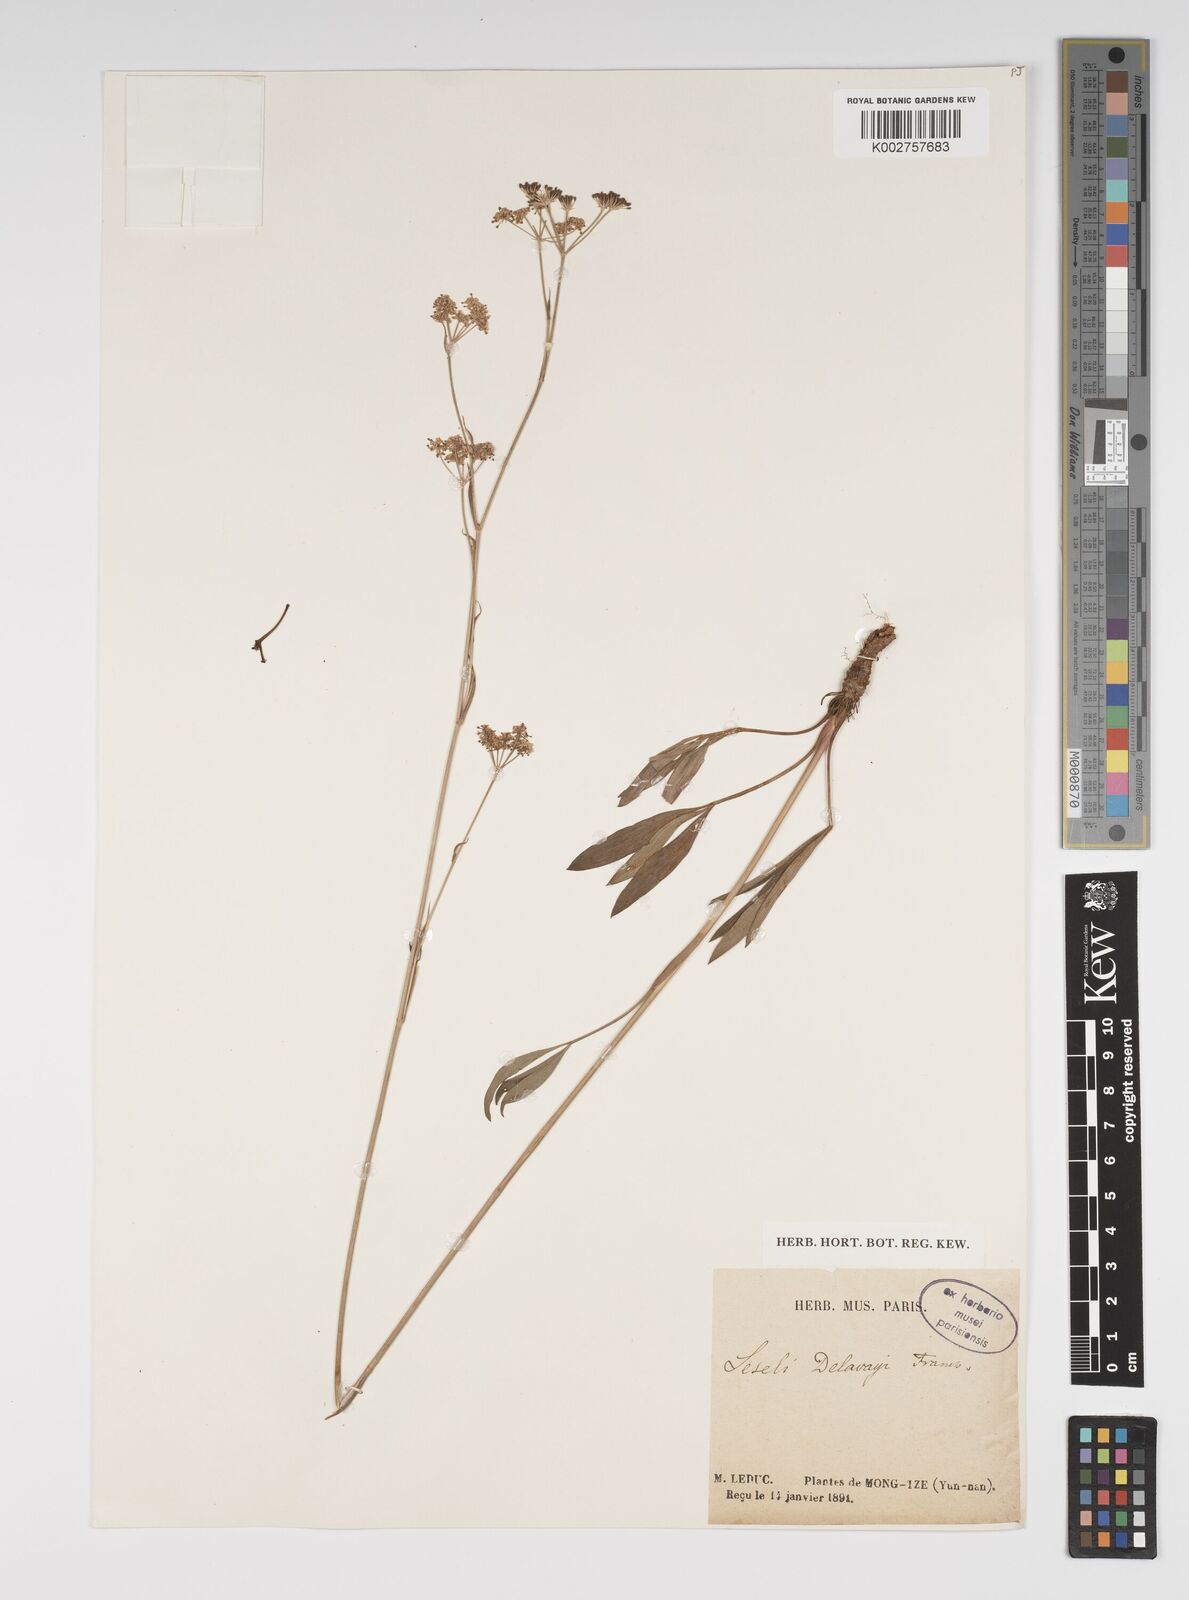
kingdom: Plantae
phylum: Tracheophyta
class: Magnoliopsida
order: Apiales
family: Apiaceae
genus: Seseli
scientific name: Seseli delavayi
